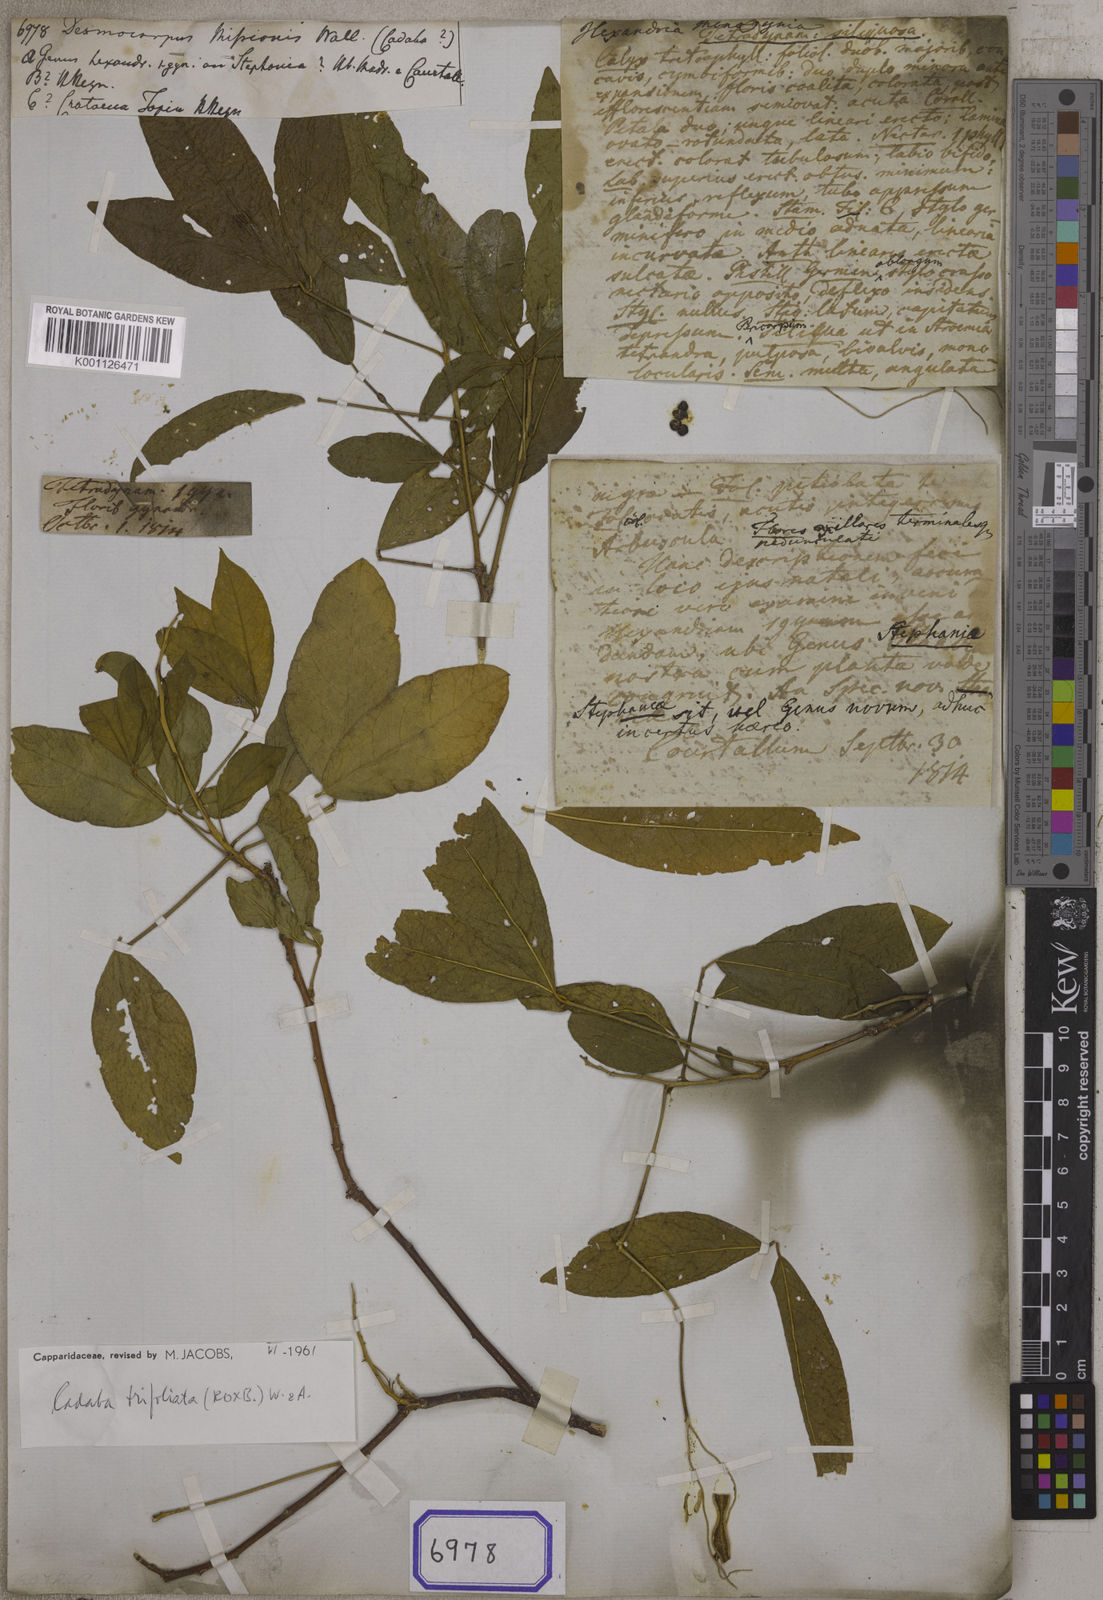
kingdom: Plantae
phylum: Tracheophyta
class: Magnoliopsida
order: Brassicales
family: Capparaceae
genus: Cadaba
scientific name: Cadaba trifoliata
